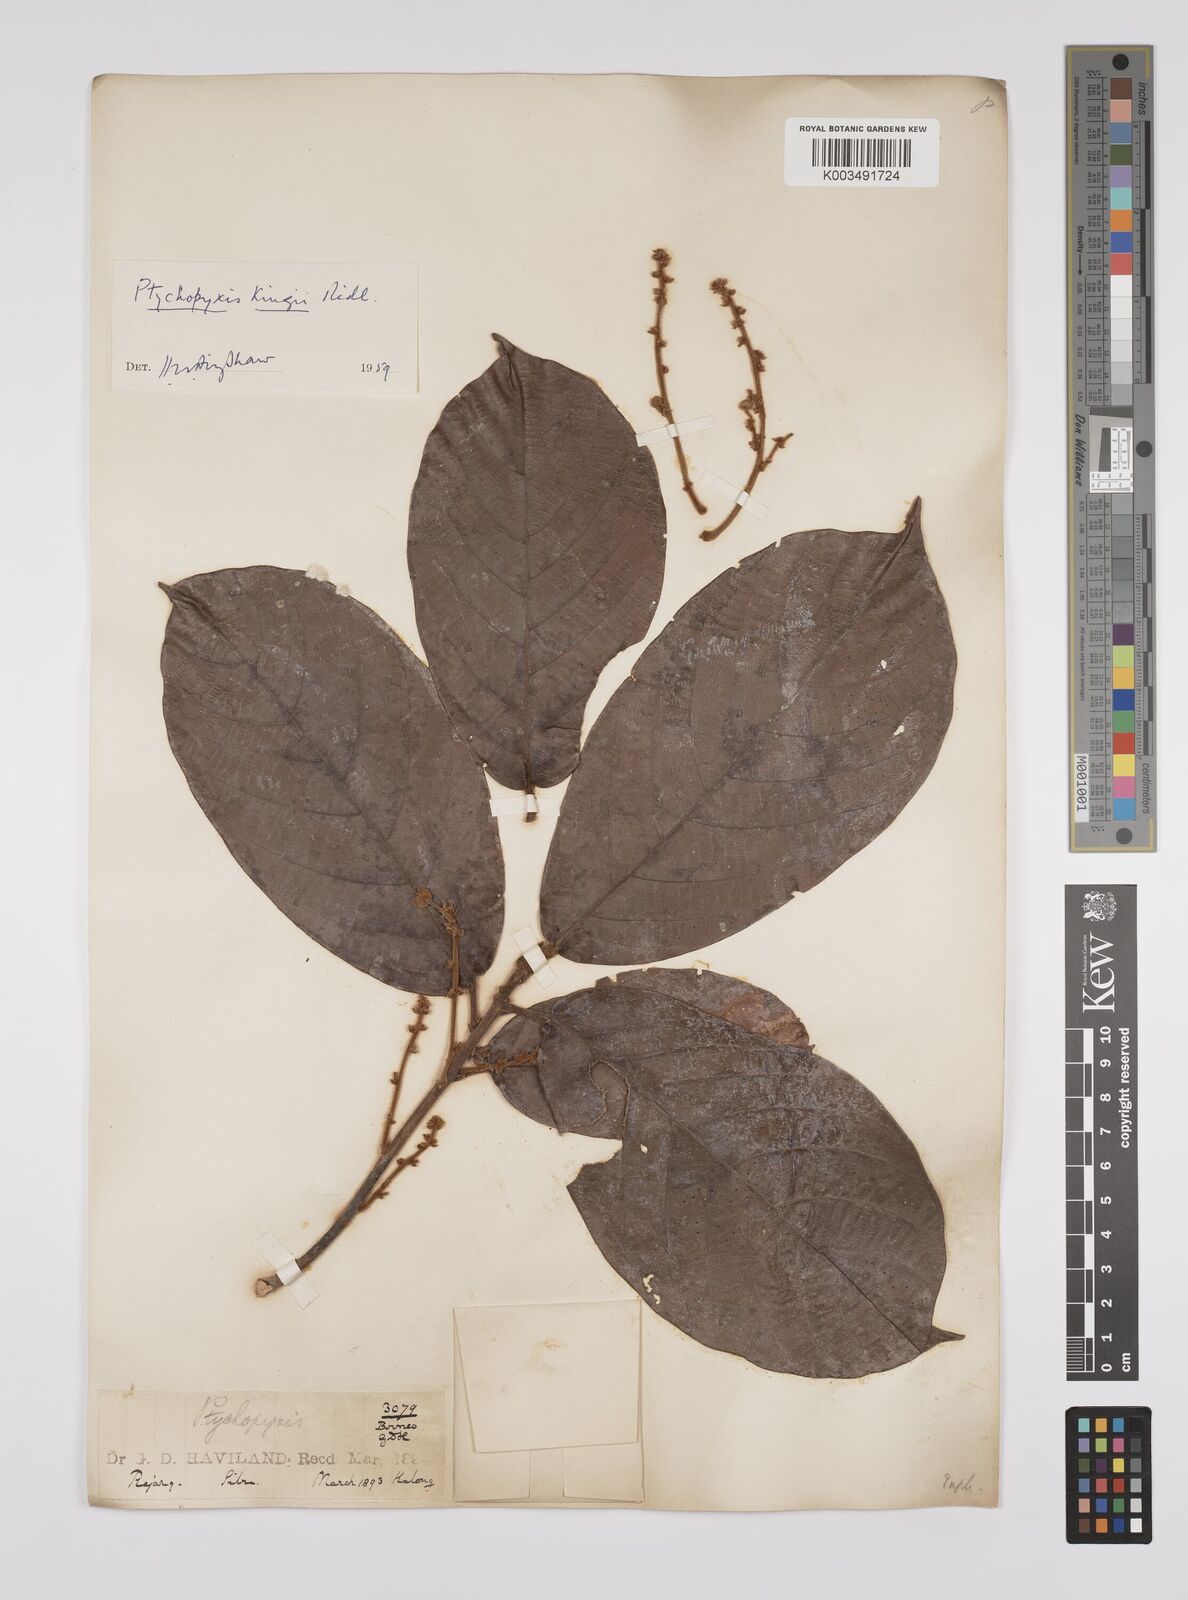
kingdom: Plantae
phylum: Tracheophyta
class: Magnoliopsida
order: Malpighiales
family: Euphorbiaceae
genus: Ptychopyxis
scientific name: Ptychopyxis kingii
